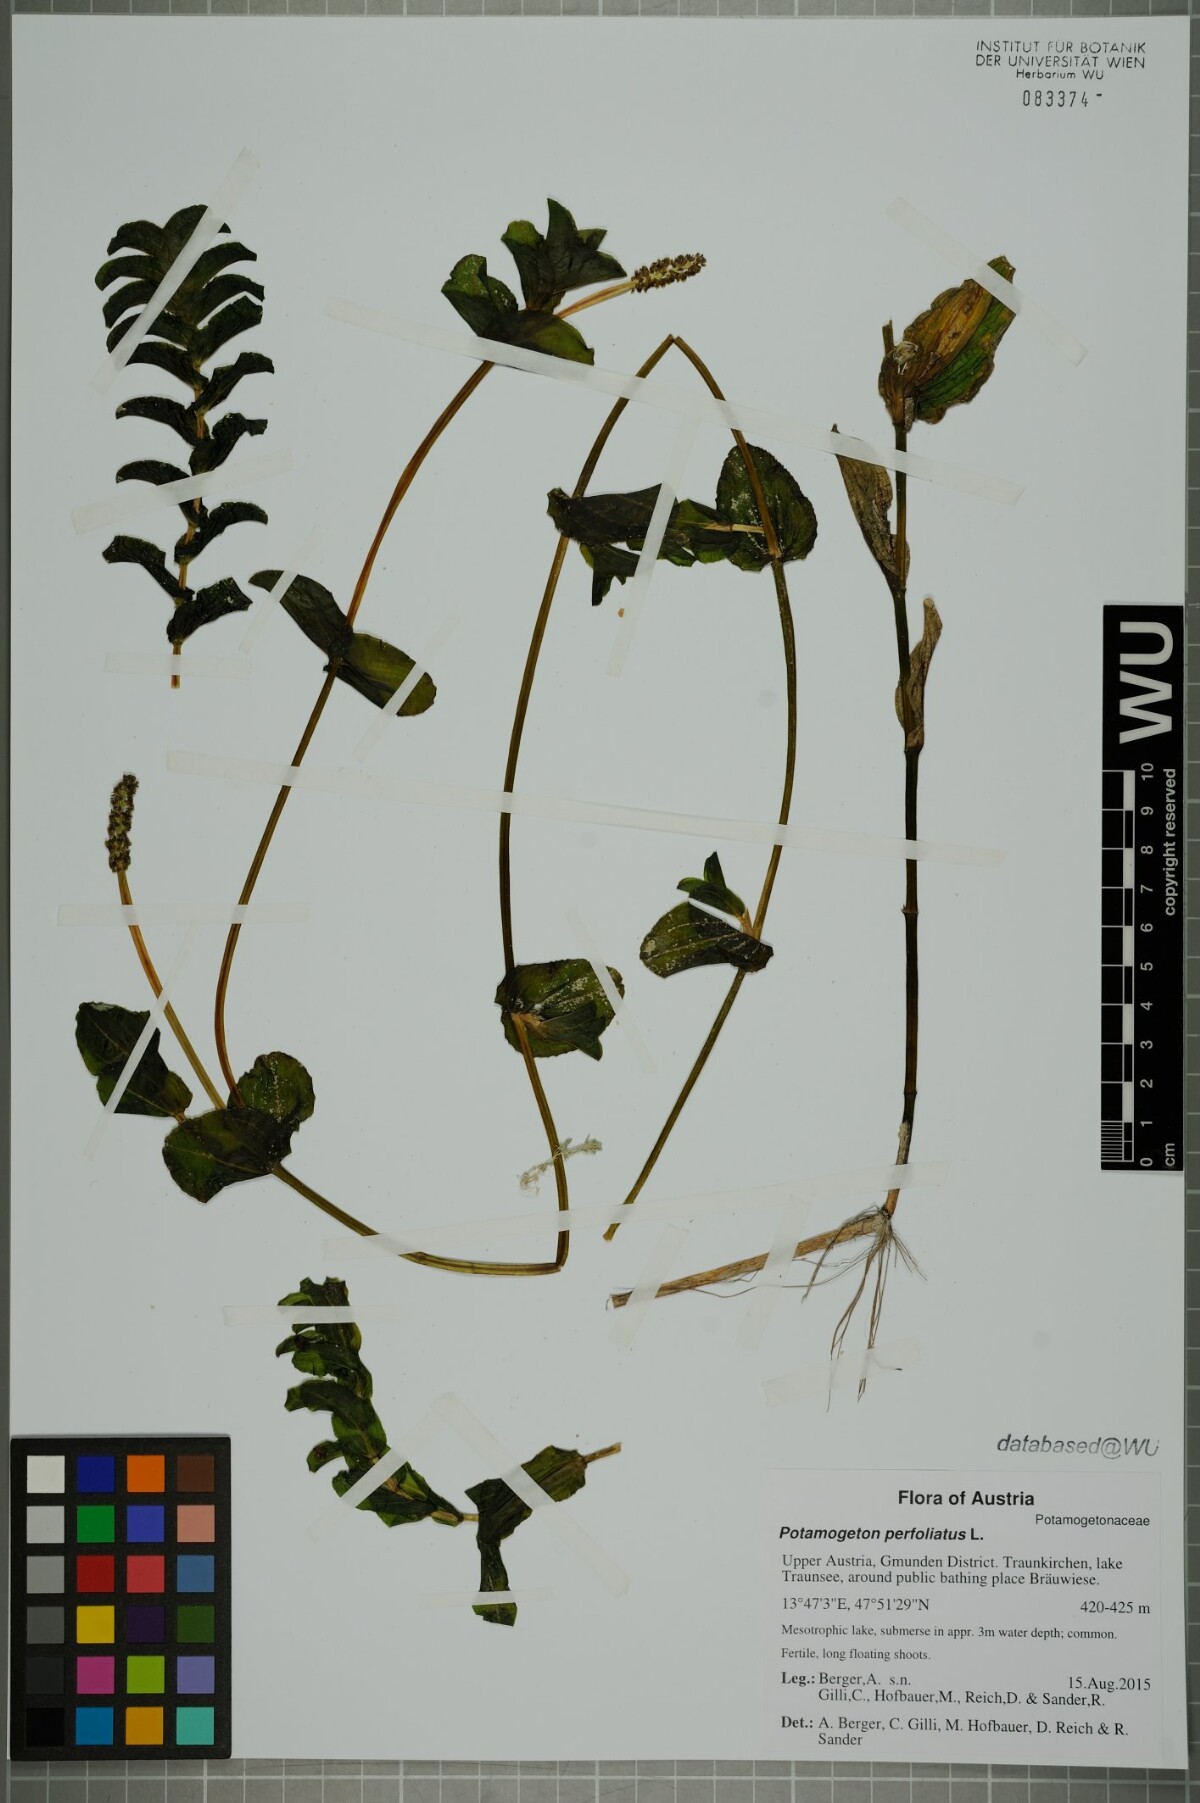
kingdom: Plantae
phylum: Tracheophyta
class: Liliopsida
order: Alismatales
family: Potamogetonaceae
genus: Potamogeton
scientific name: Potamogeton perfoliatus
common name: Perfoliate pondweed
